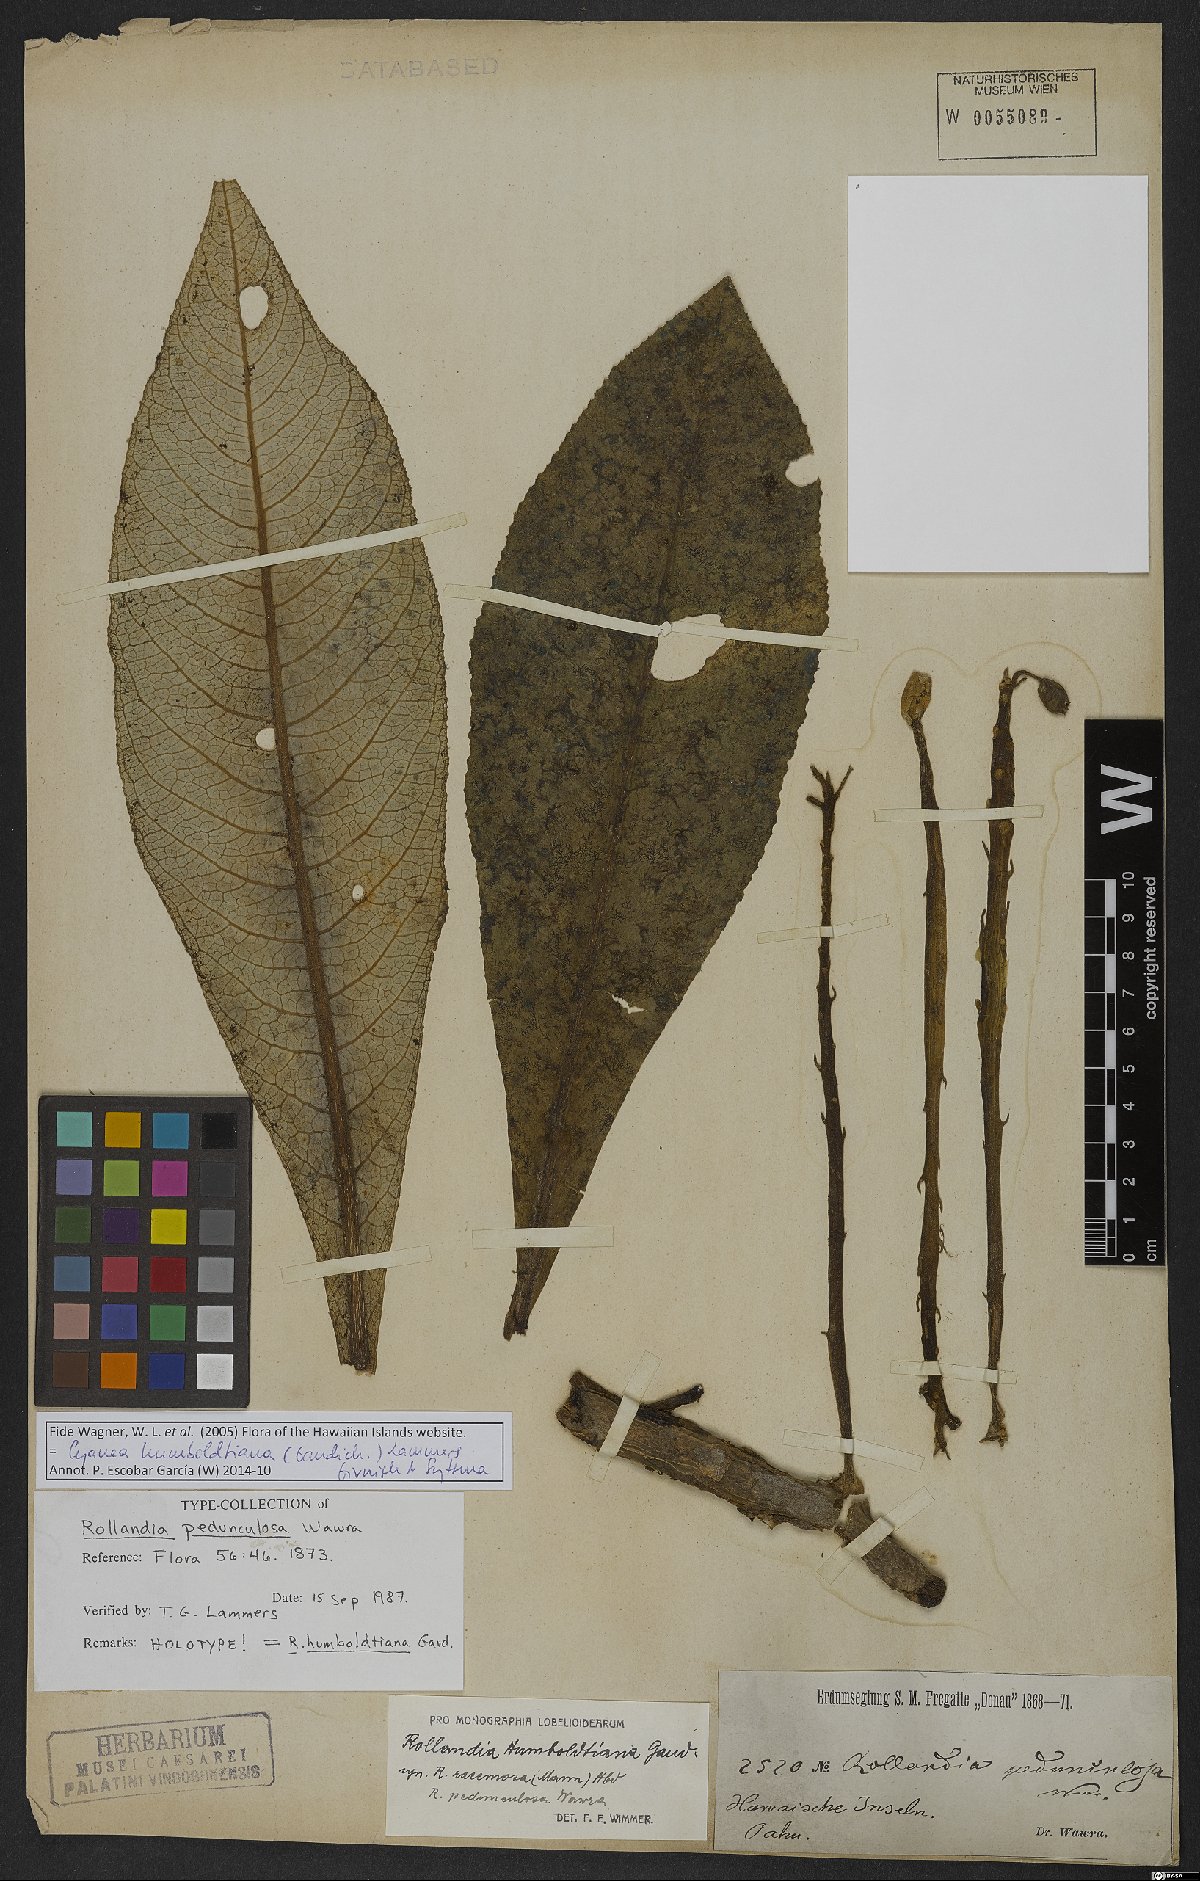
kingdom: Plantae
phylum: Tracheophyta
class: Magnoliopsida
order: Asterales
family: Campanulaceae
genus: Cyanea
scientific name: Cyanea humboldtiana
